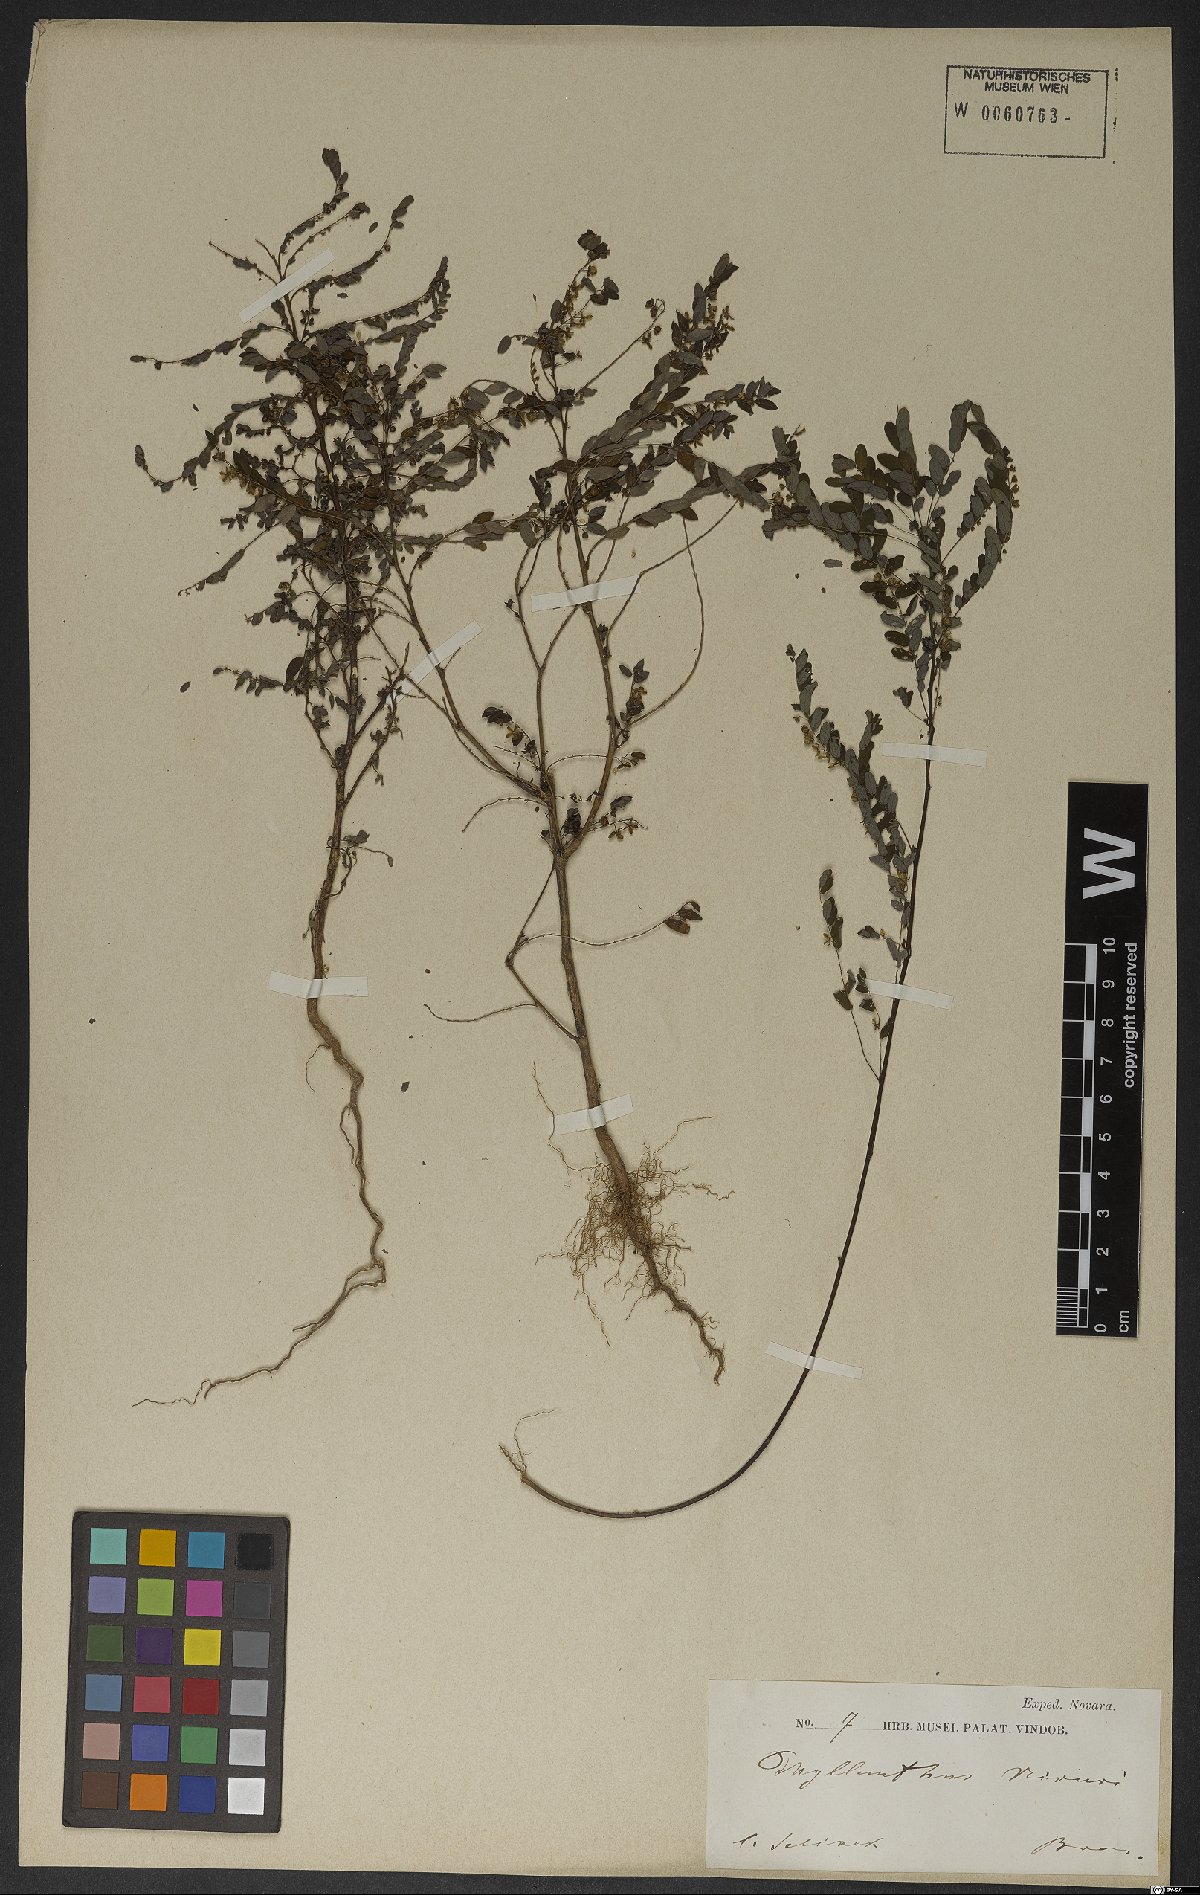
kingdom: Plantae
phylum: Tracheophyta
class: Magnoliopsida
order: Malpighiales
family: Phyllanthaceae
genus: Phyllanthus
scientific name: Phyllanthus
